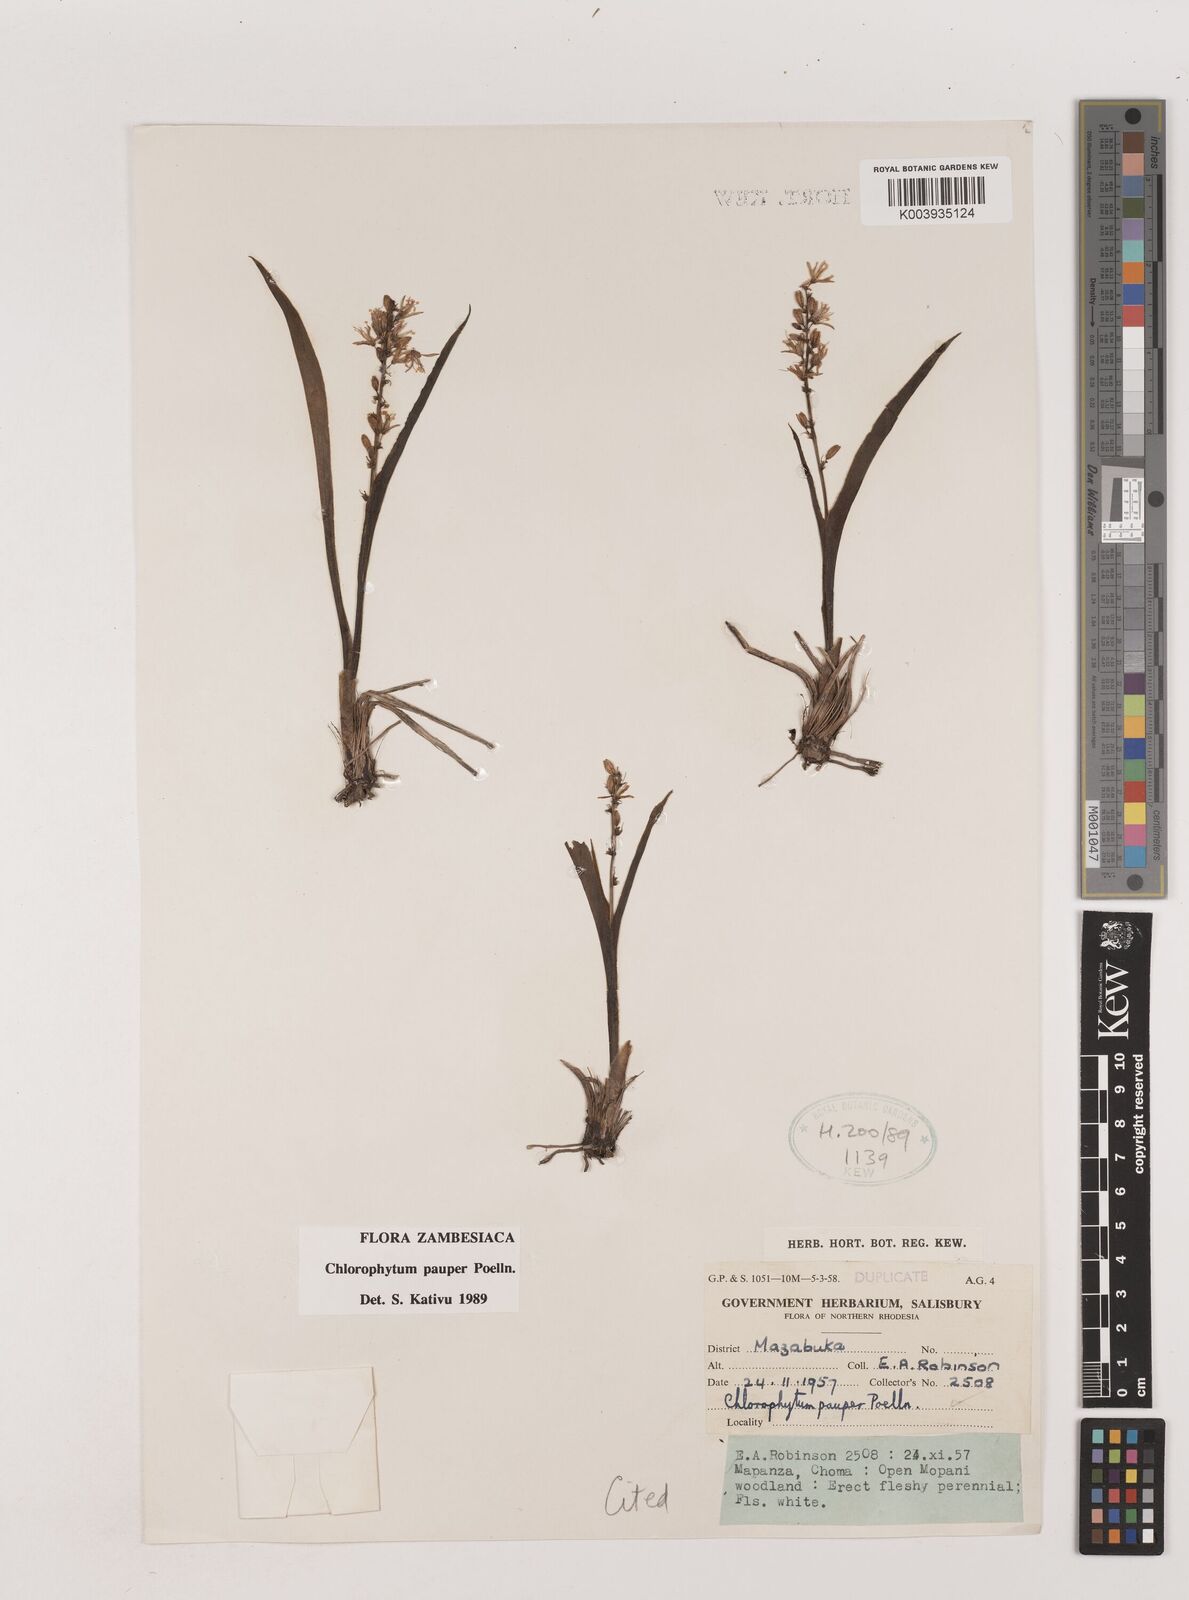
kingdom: Plantae
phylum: Tracheophyta
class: Liliopsida
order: Asparagales
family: Asparagaceae
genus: Chlorophytum
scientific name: Chlorophytum pauper
